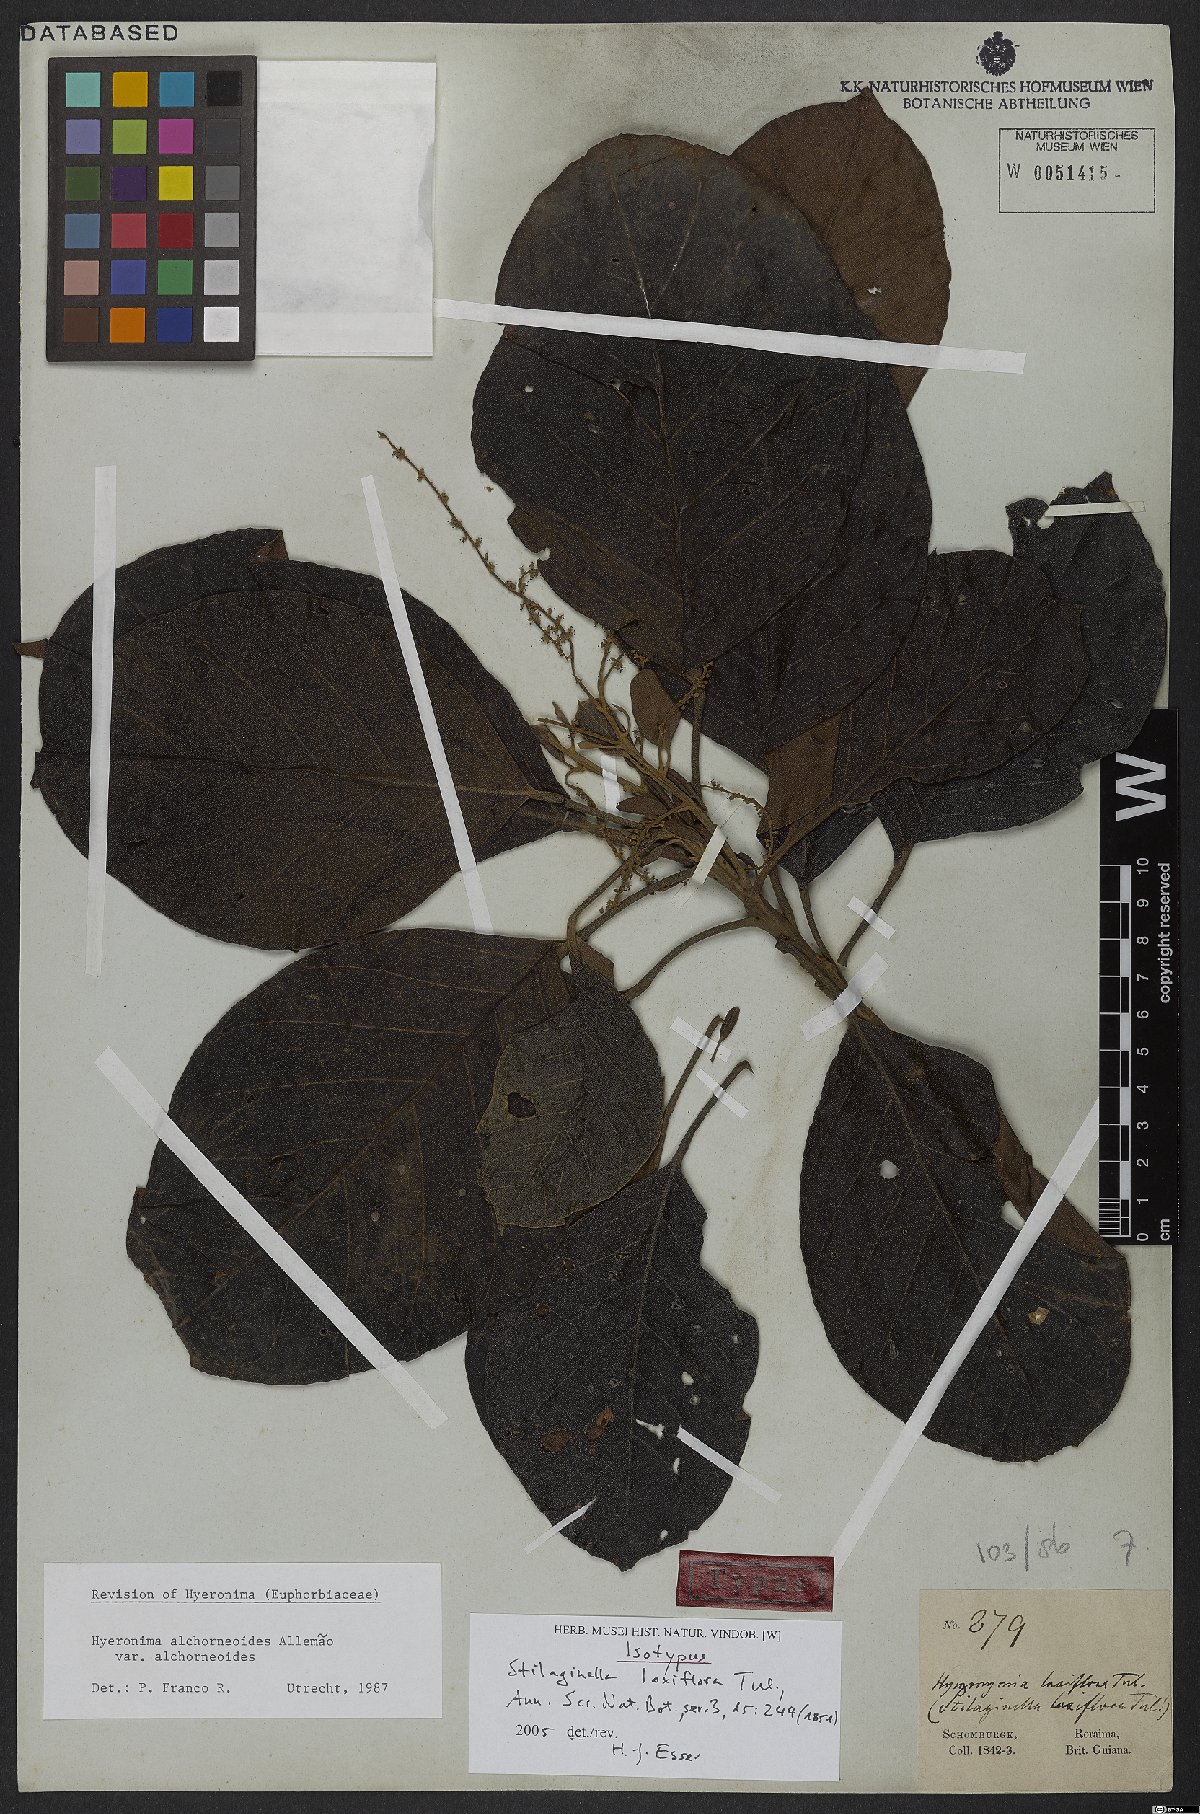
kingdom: Plantae
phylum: Tracheophyta
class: Magnoliopsida
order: Malpighiales
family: Phyllanthaceae
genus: Hieronyma
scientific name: Hieronyma alchorneoides
